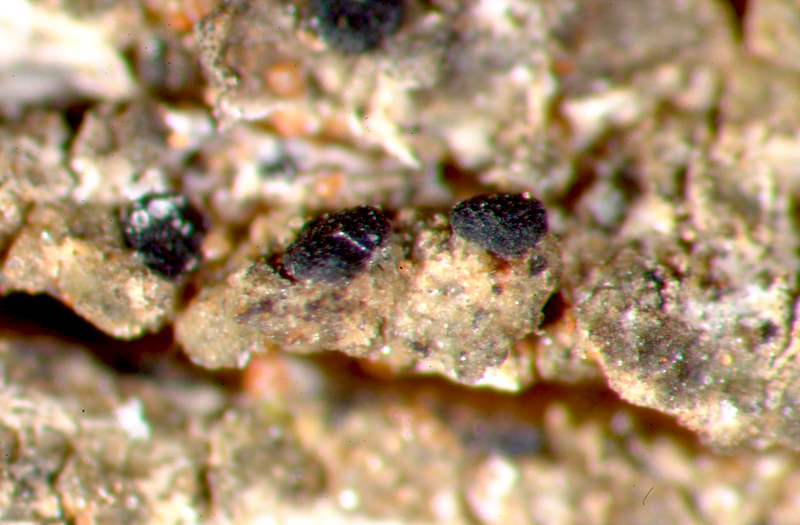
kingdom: Fungi
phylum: Ascomycota
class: Lecanoromycetes
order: Caliciales
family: Caliciaceae
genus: Amandinea
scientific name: Amandinea extenuata
